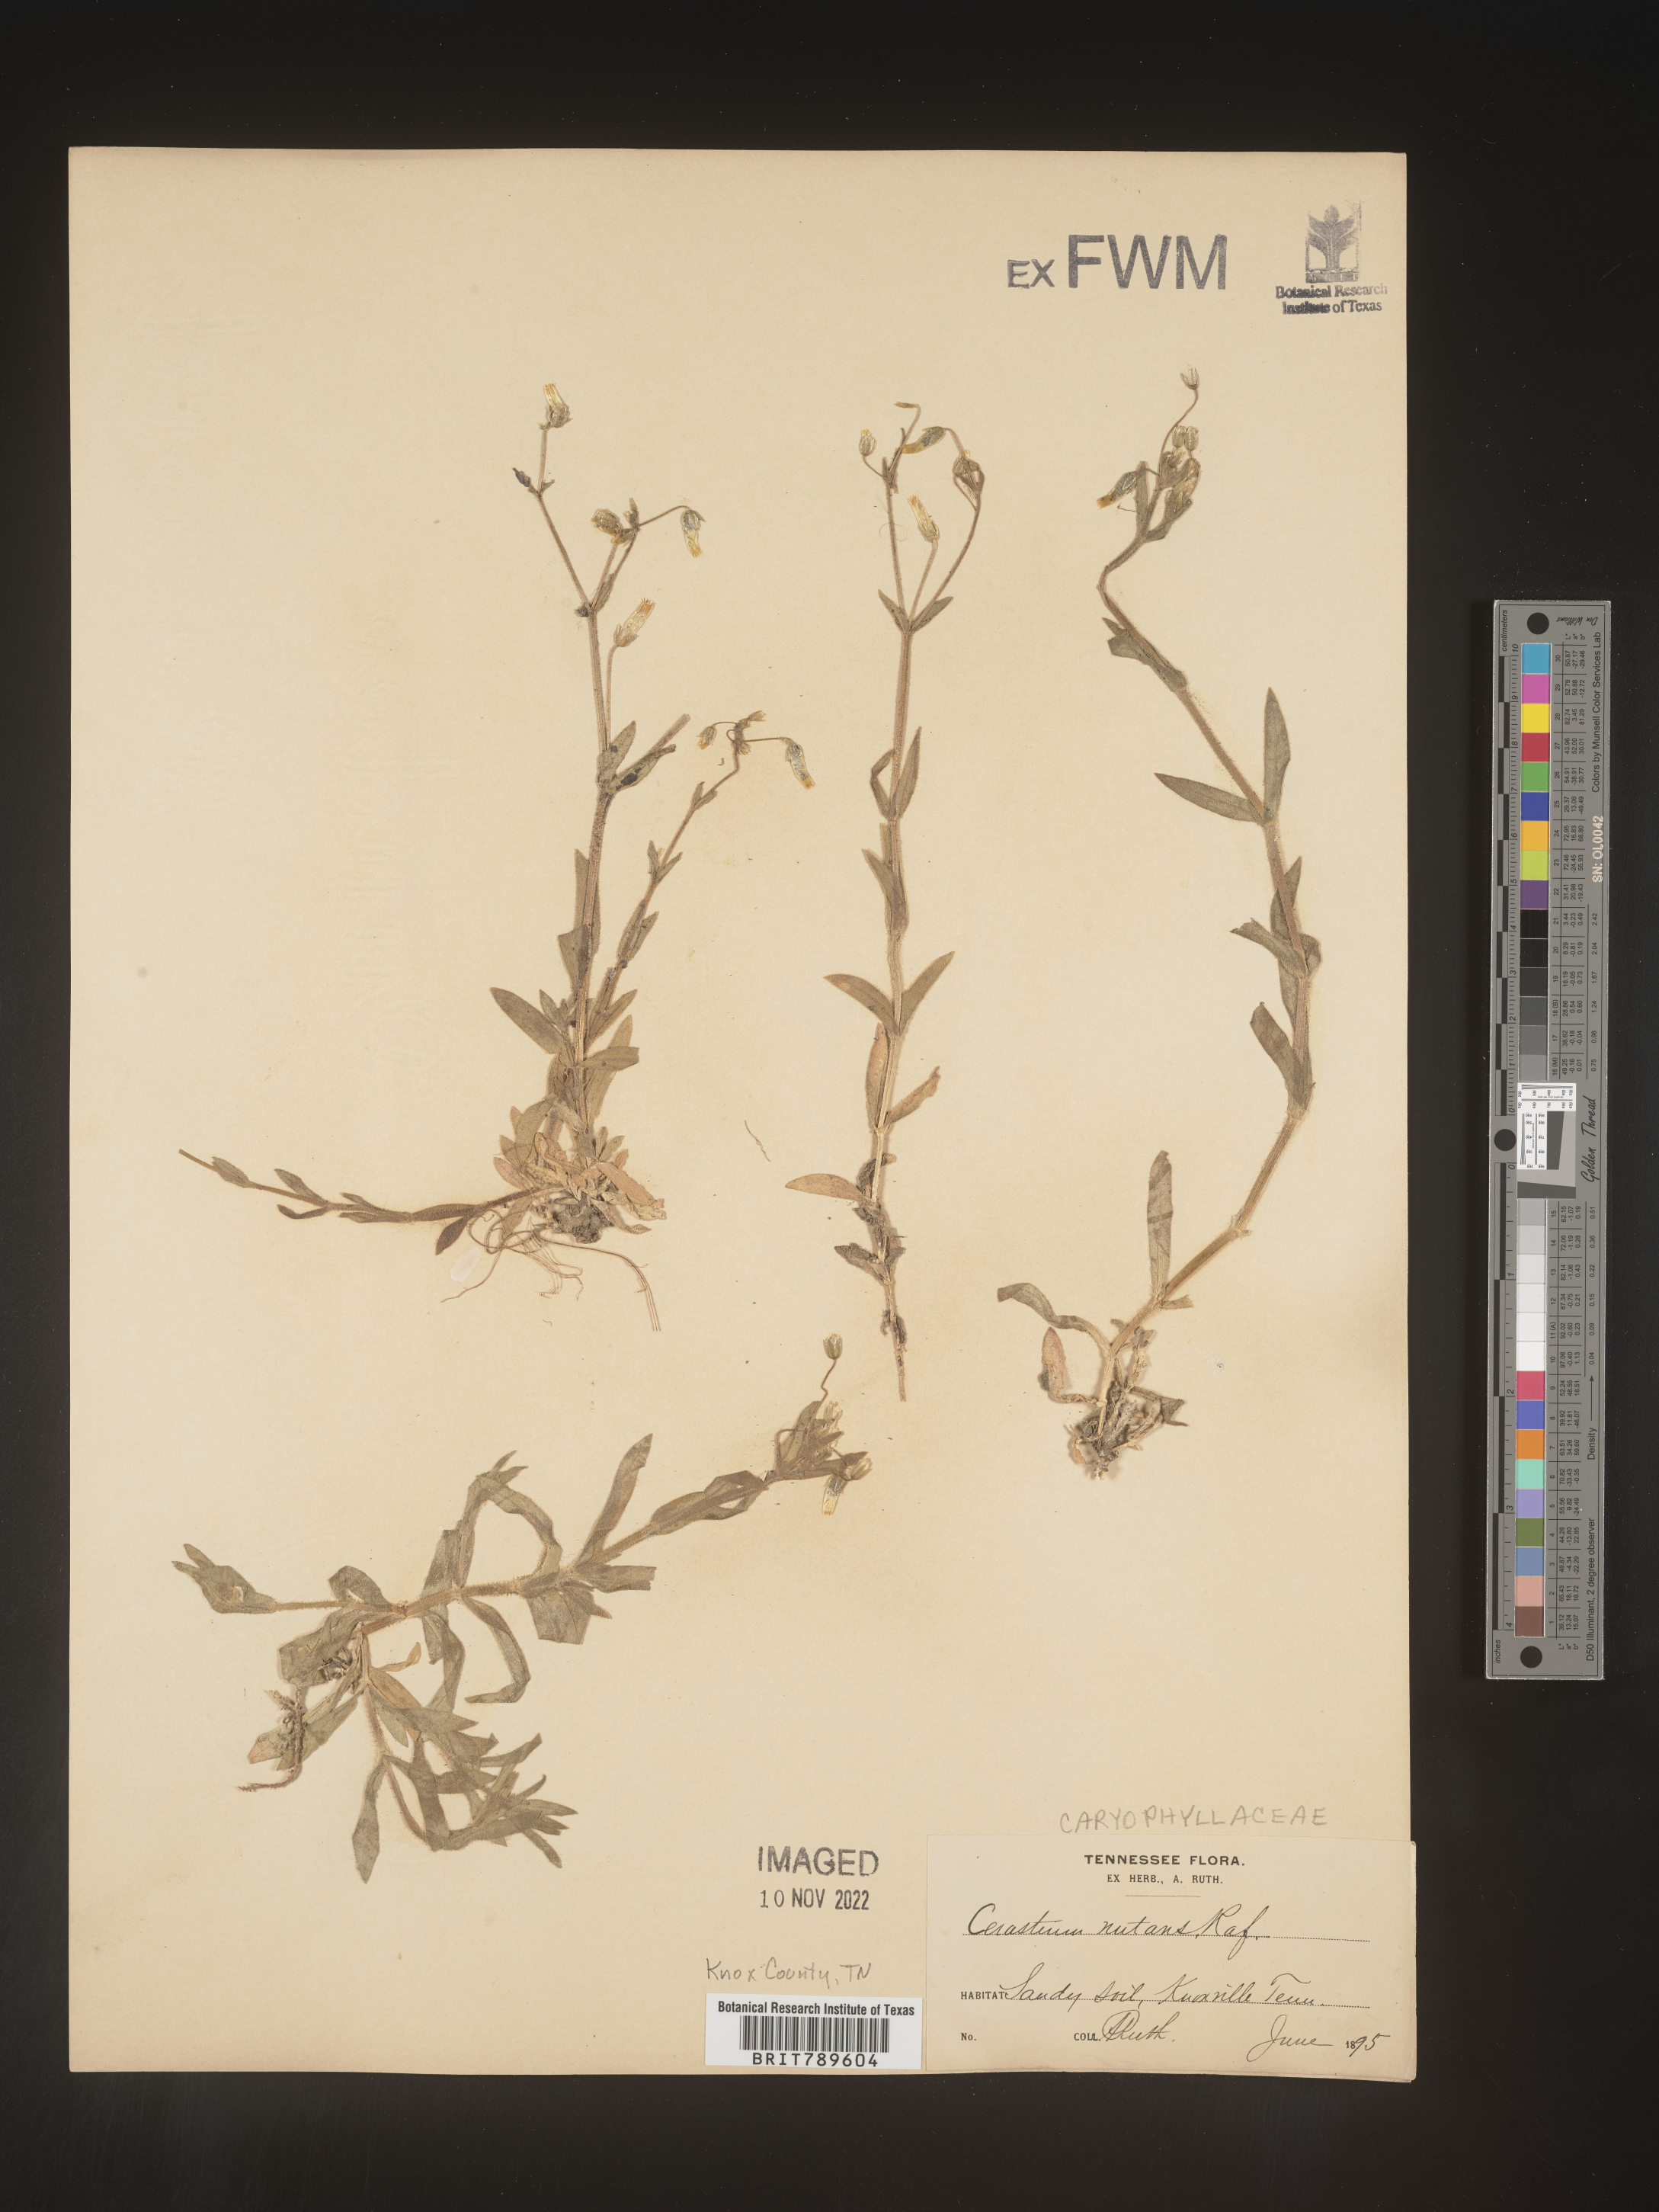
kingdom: Plantae
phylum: Tracheophyta
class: Magnoliopsida
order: Caryophyllales
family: Caryophyllaceae
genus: Cerastium
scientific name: Cerastium nutans
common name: Long-stalked chickweed
